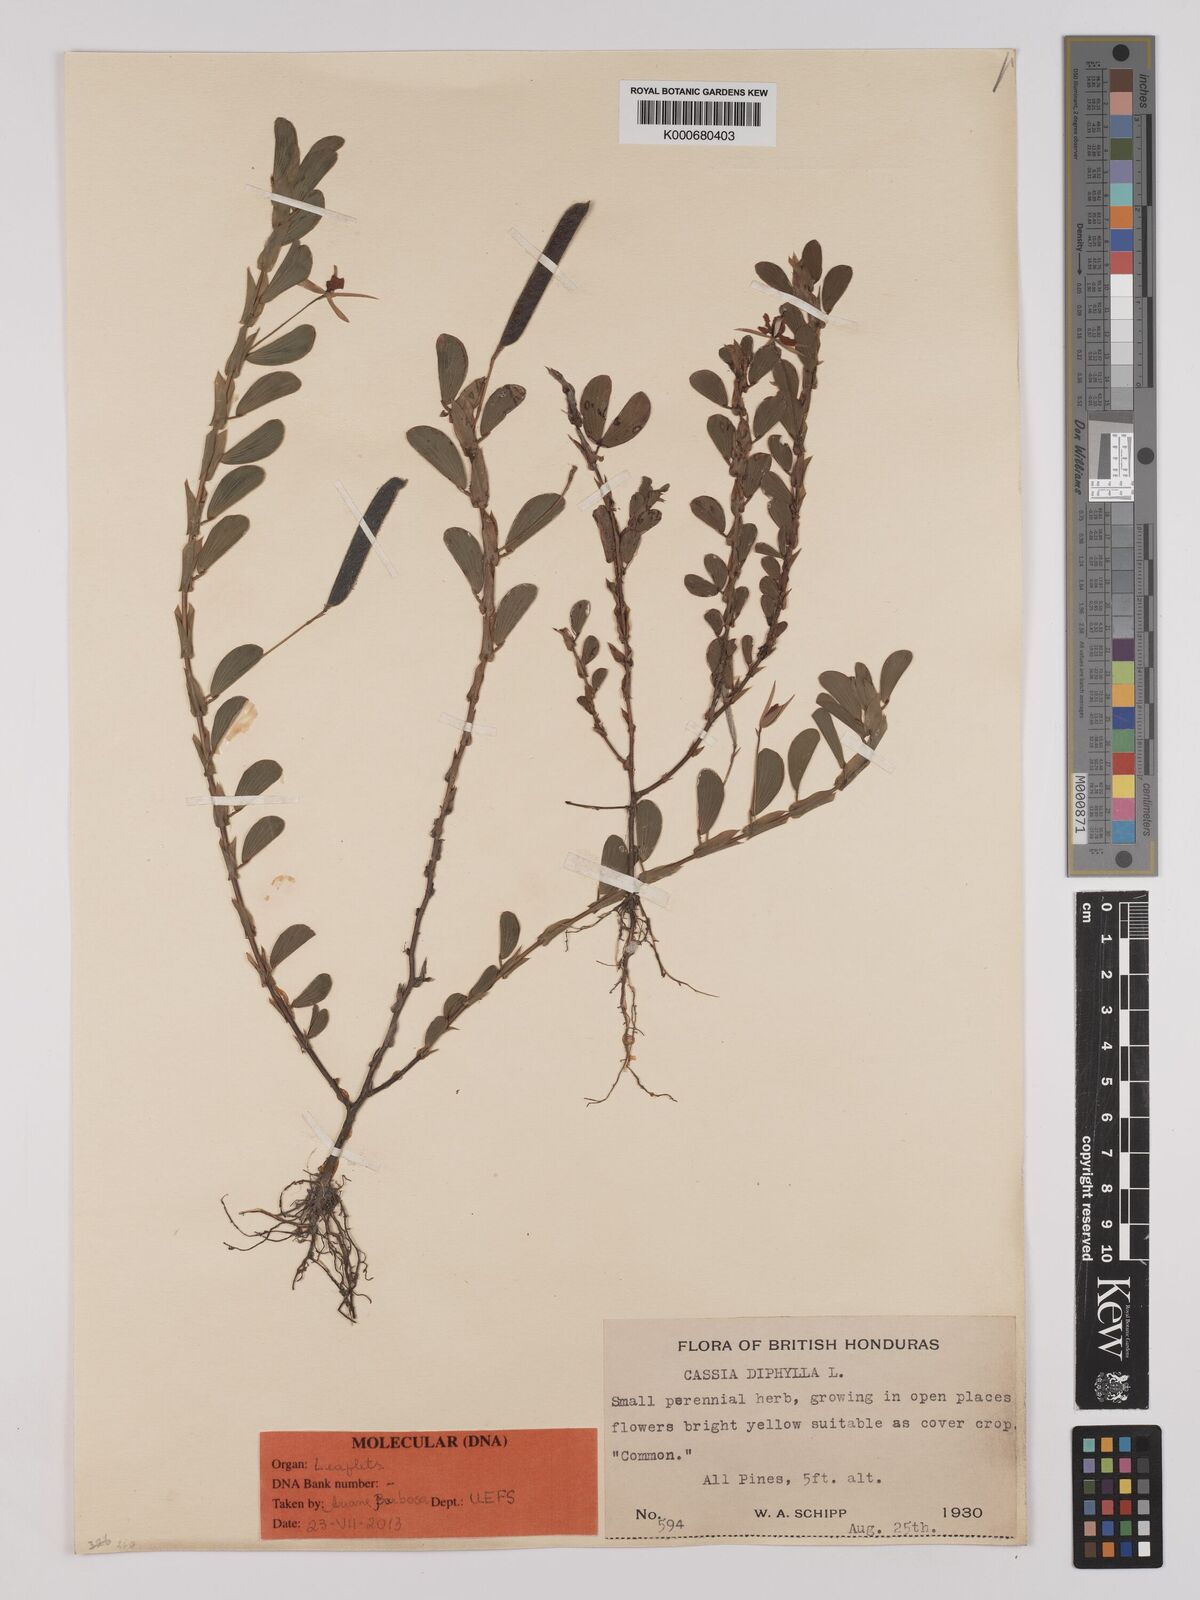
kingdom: Plantae
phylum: Tracheophyta
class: Magnoliopsida
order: Fabales
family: Fabaceae
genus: Chamaecrista
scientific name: Chamaecrista diphylla
